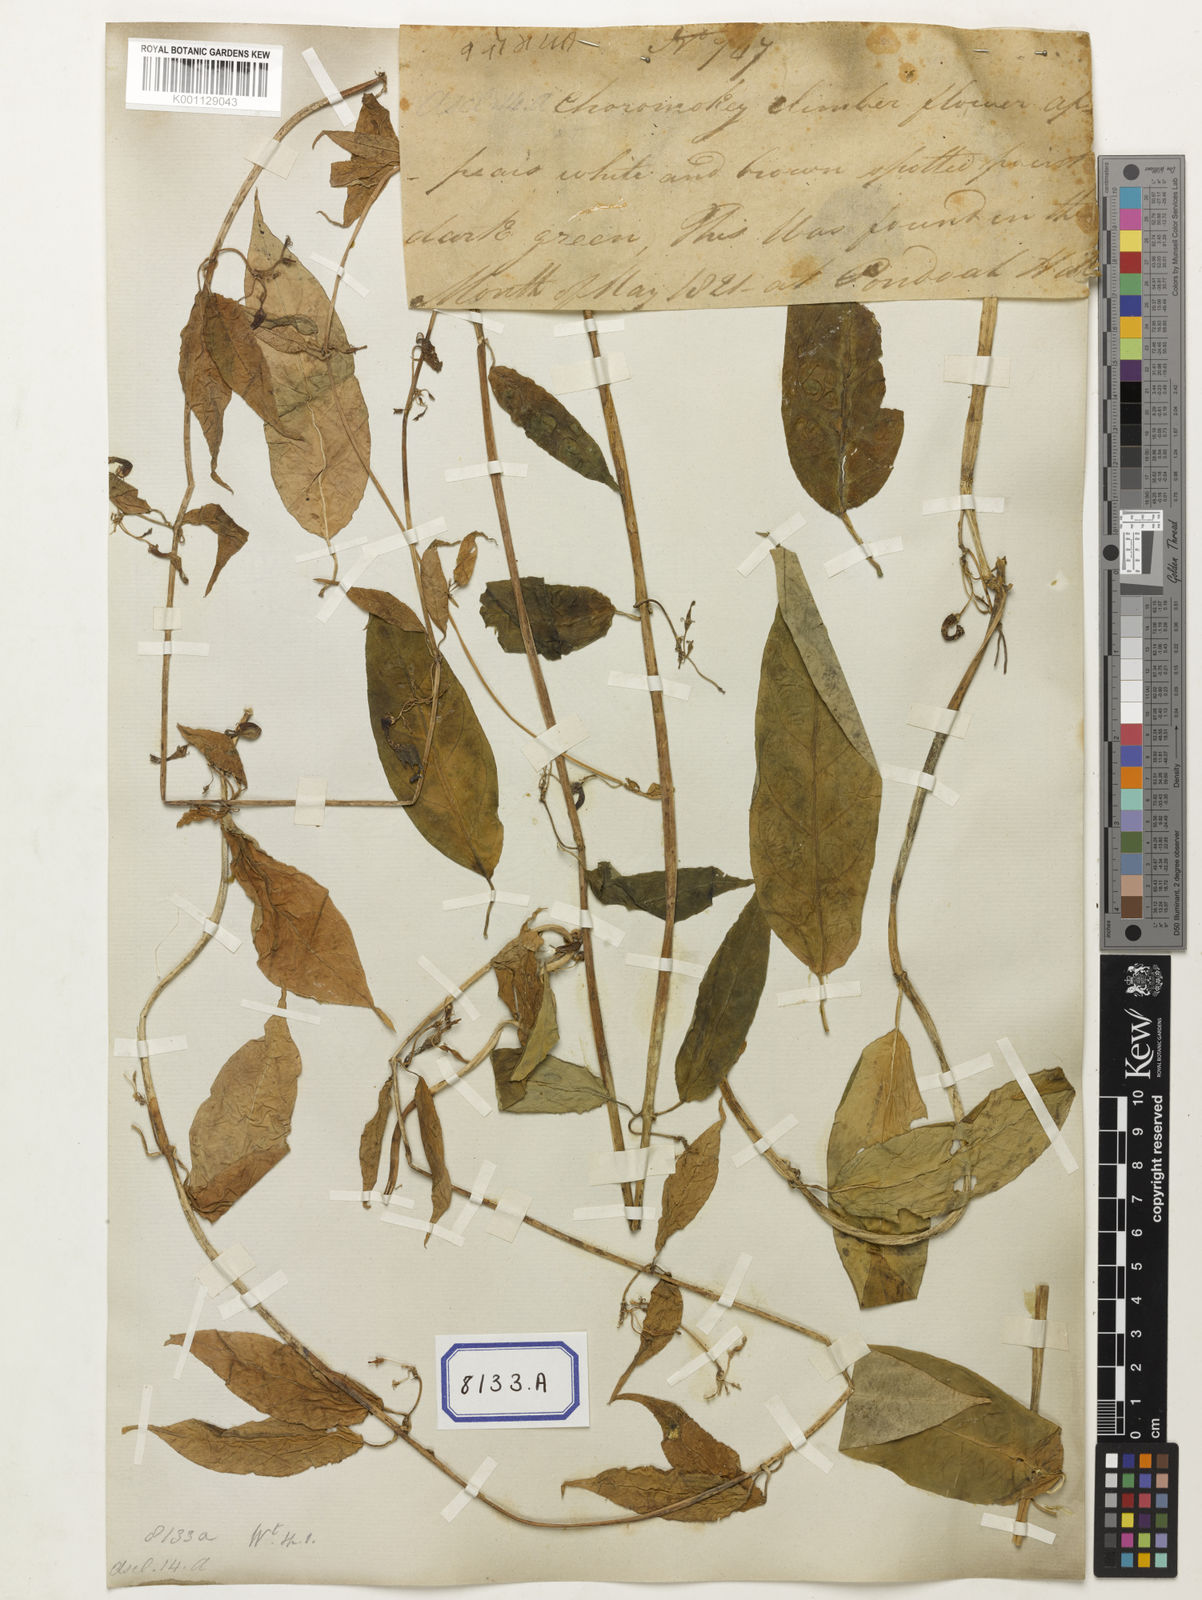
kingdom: Plantae
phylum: Tracheophyta
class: Magnoliopsida
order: Gentianales
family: Apocynaceae
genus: Ceropegia
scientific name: Ceropegia lucida
